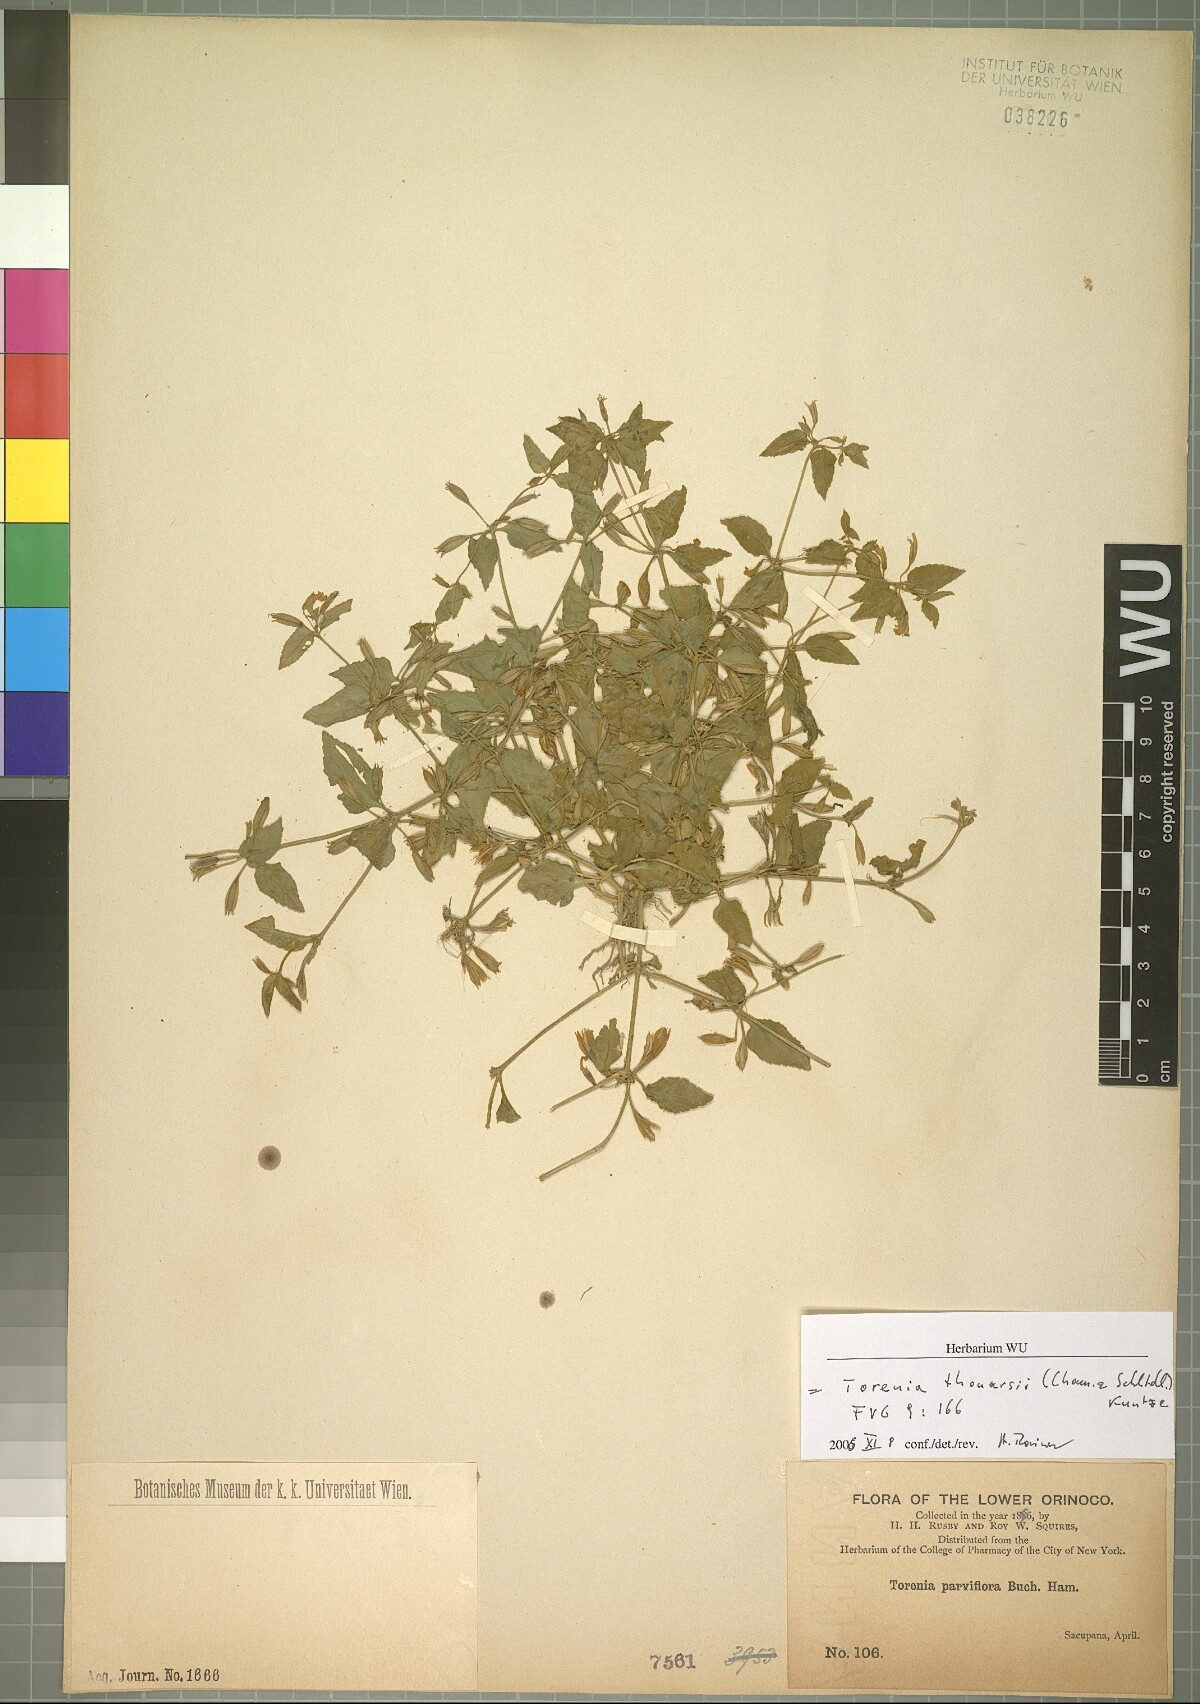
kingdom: Plantae
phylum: Tracheophyta
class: Magnoliopsida
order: Lamiales
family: Linderniaceae
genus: Torenia
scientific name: Torenia thouarsii
